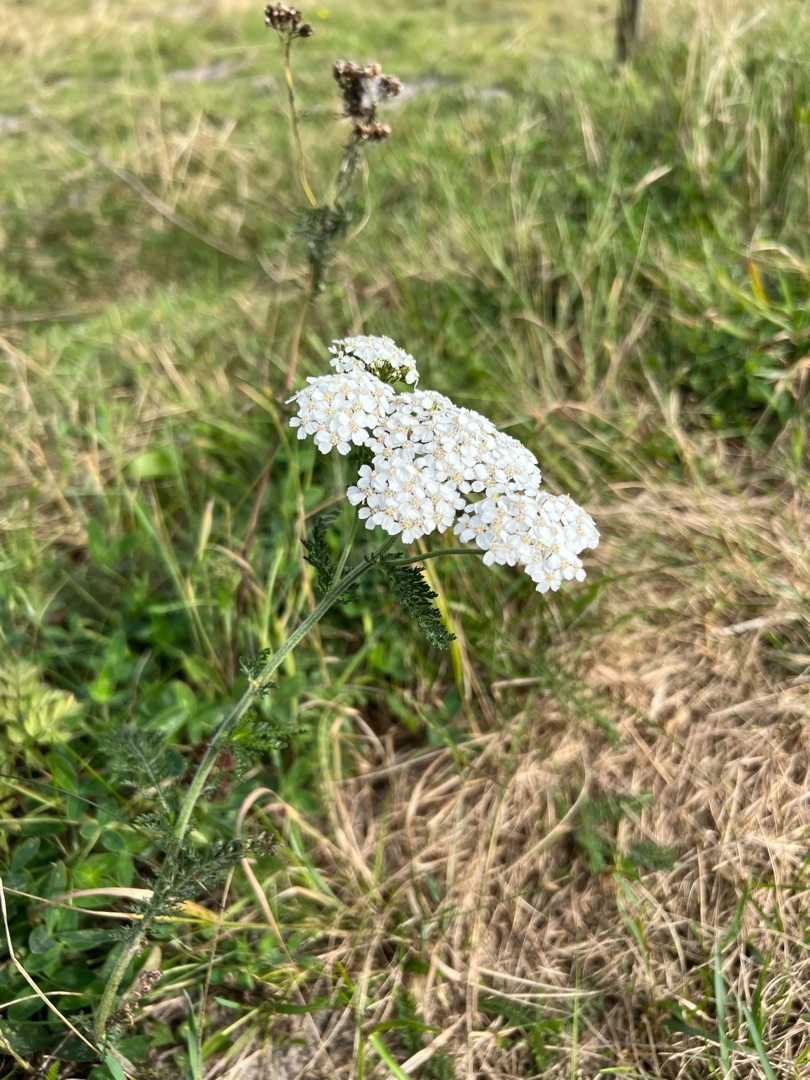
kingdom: Plantae
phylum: Tracheophyta
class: Magnoliopsida
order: Asterales
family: Asteraceae
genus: Achillea
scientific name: Achillea millefolium
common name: Almindelig røllike
